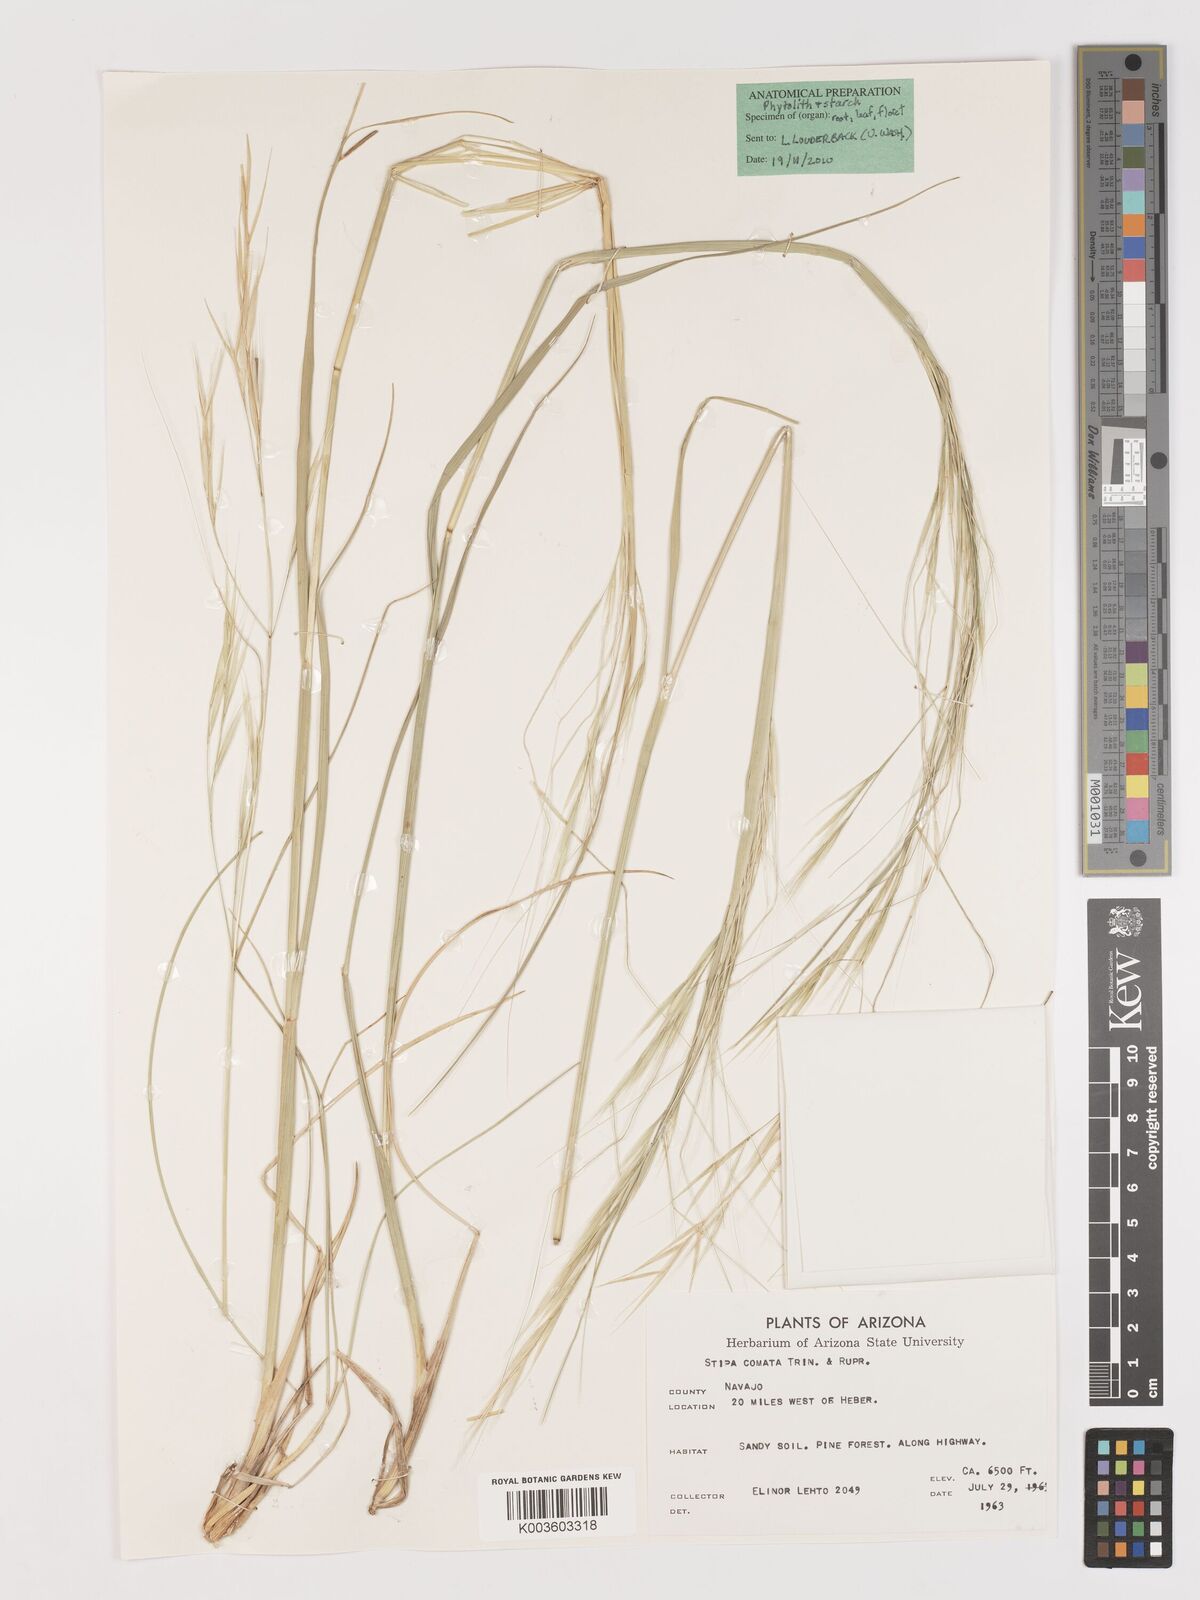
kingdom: Plantae
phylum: Tracheophyta
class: Liliopsida
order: Poales
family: Poaceae
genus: Hesperostipa
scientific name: Hesperostipa comata
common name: Needle-and-thread grass
